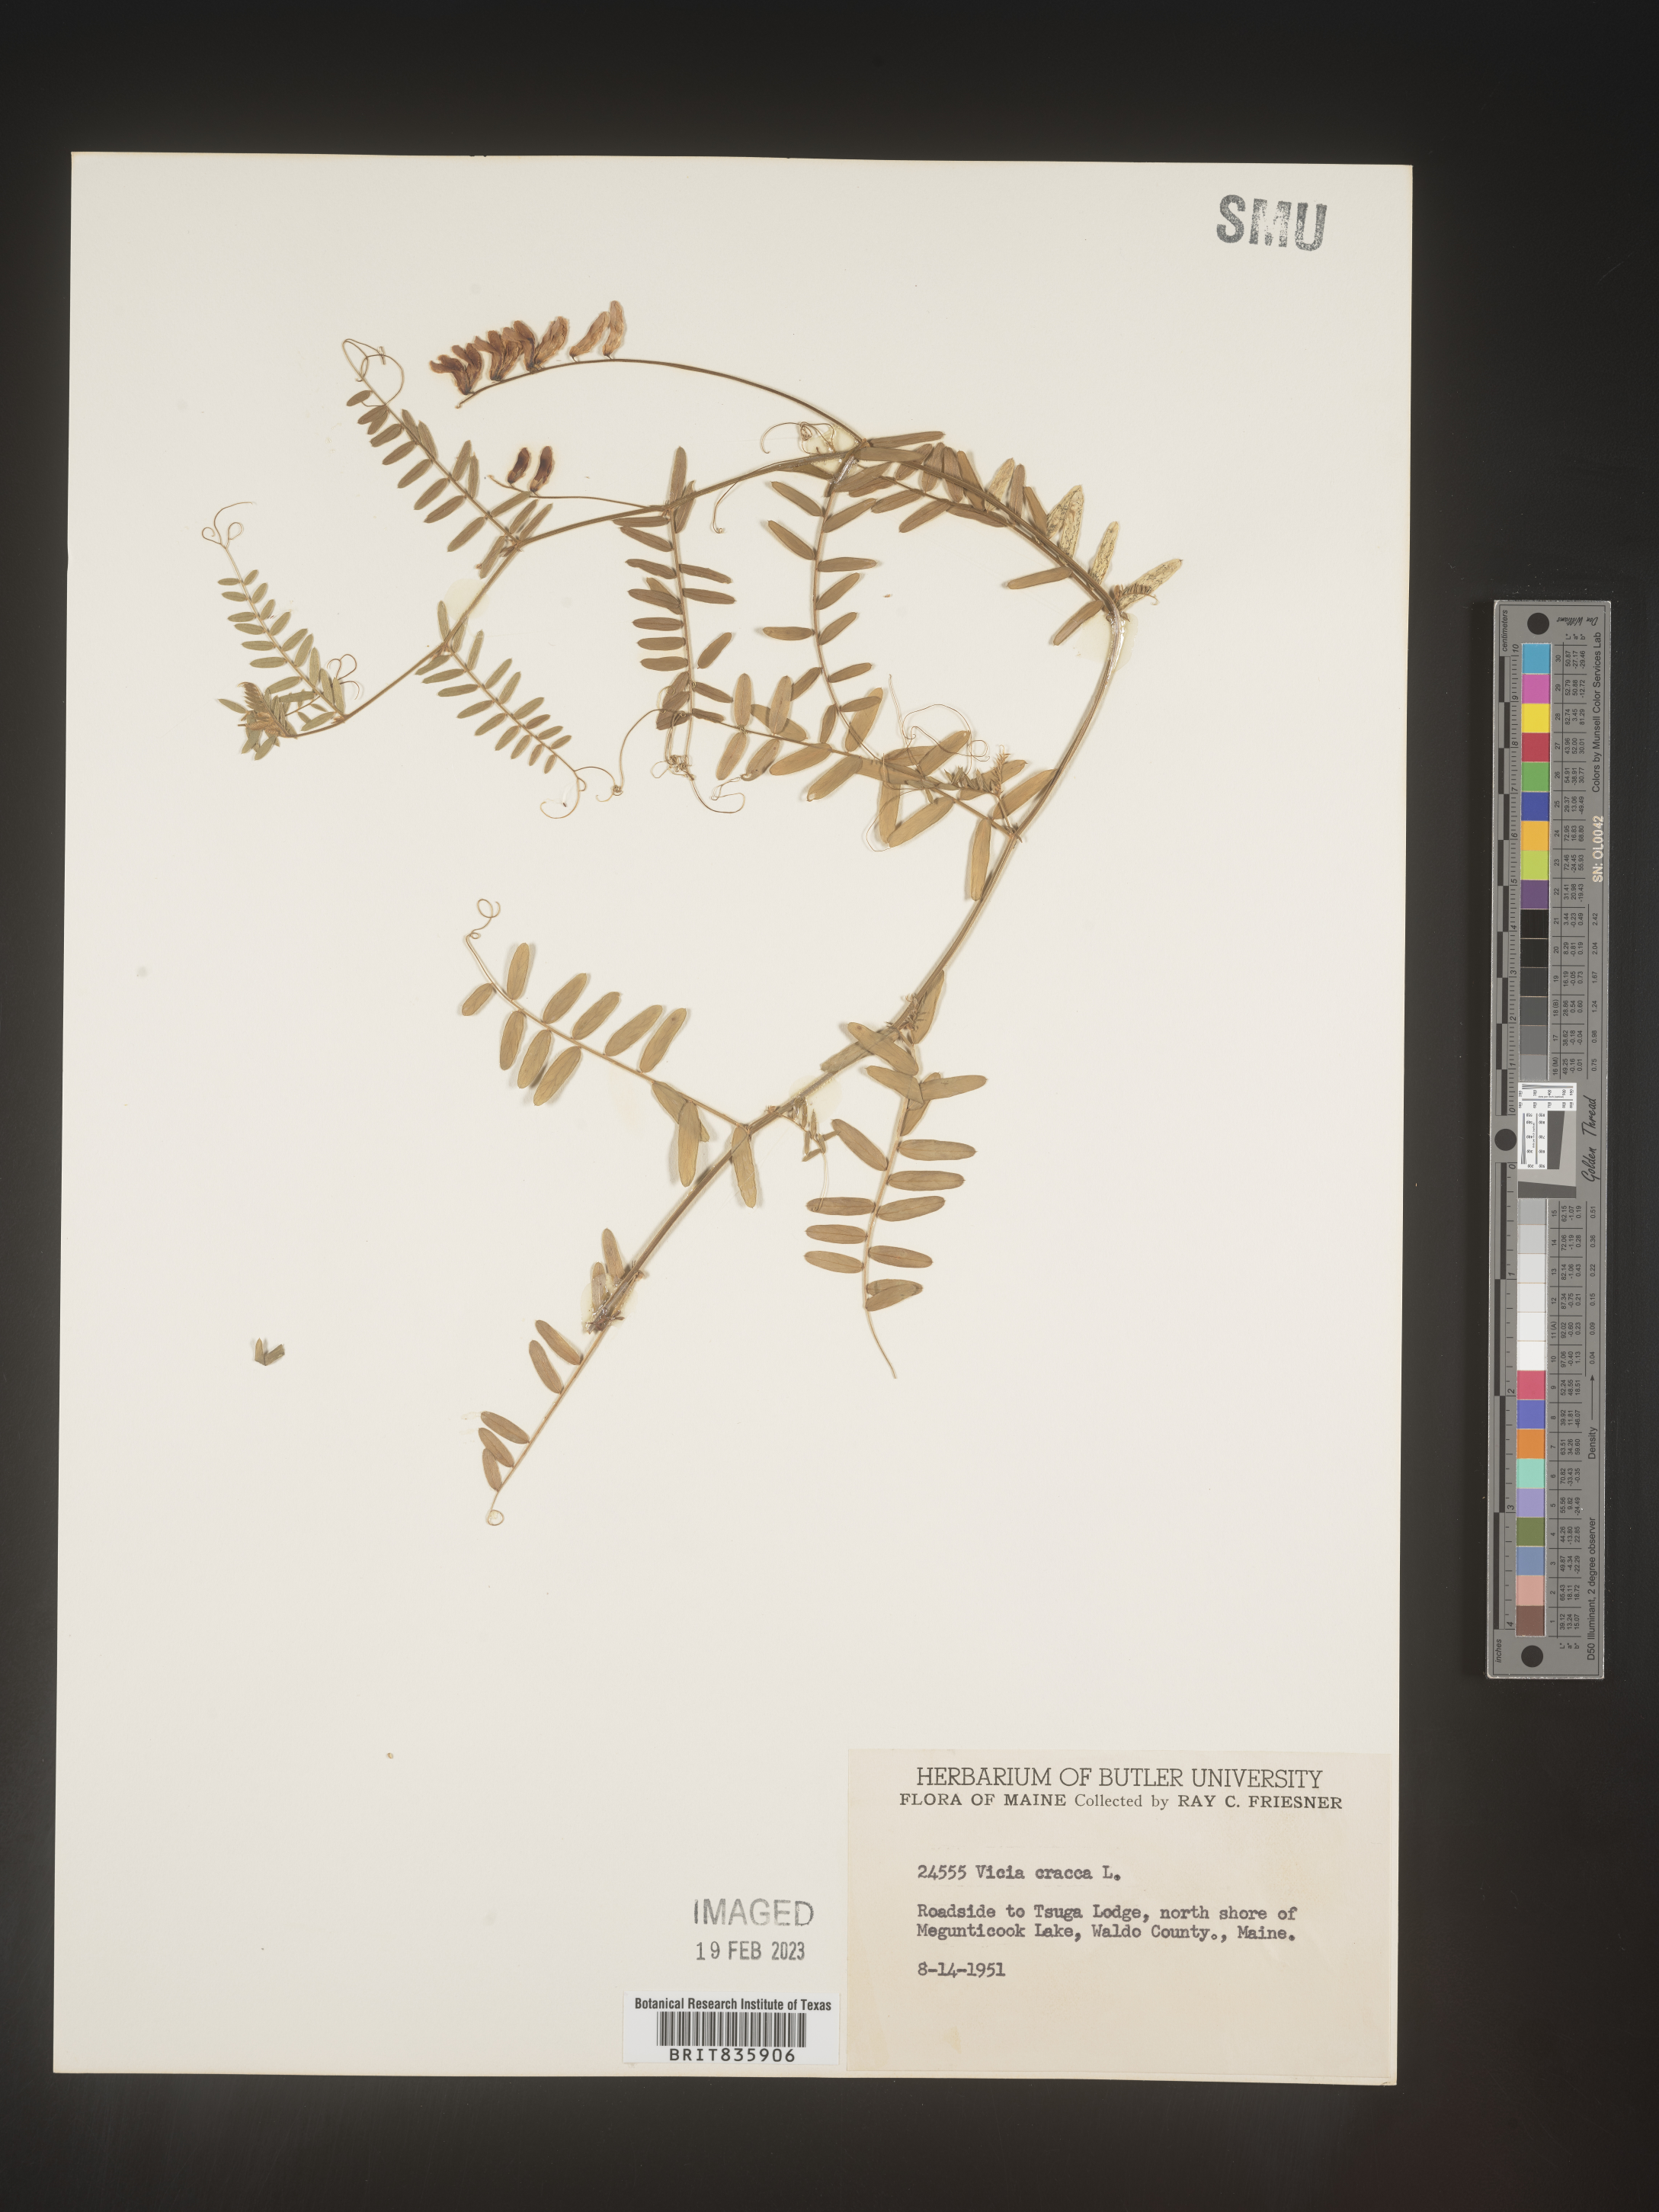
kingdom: Plantae
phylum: Tracheophyta
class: Magnoliopsida
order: Fabales
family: Fabaceae
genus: Vicia
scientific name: Vicia cracca
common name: Bird vetch
